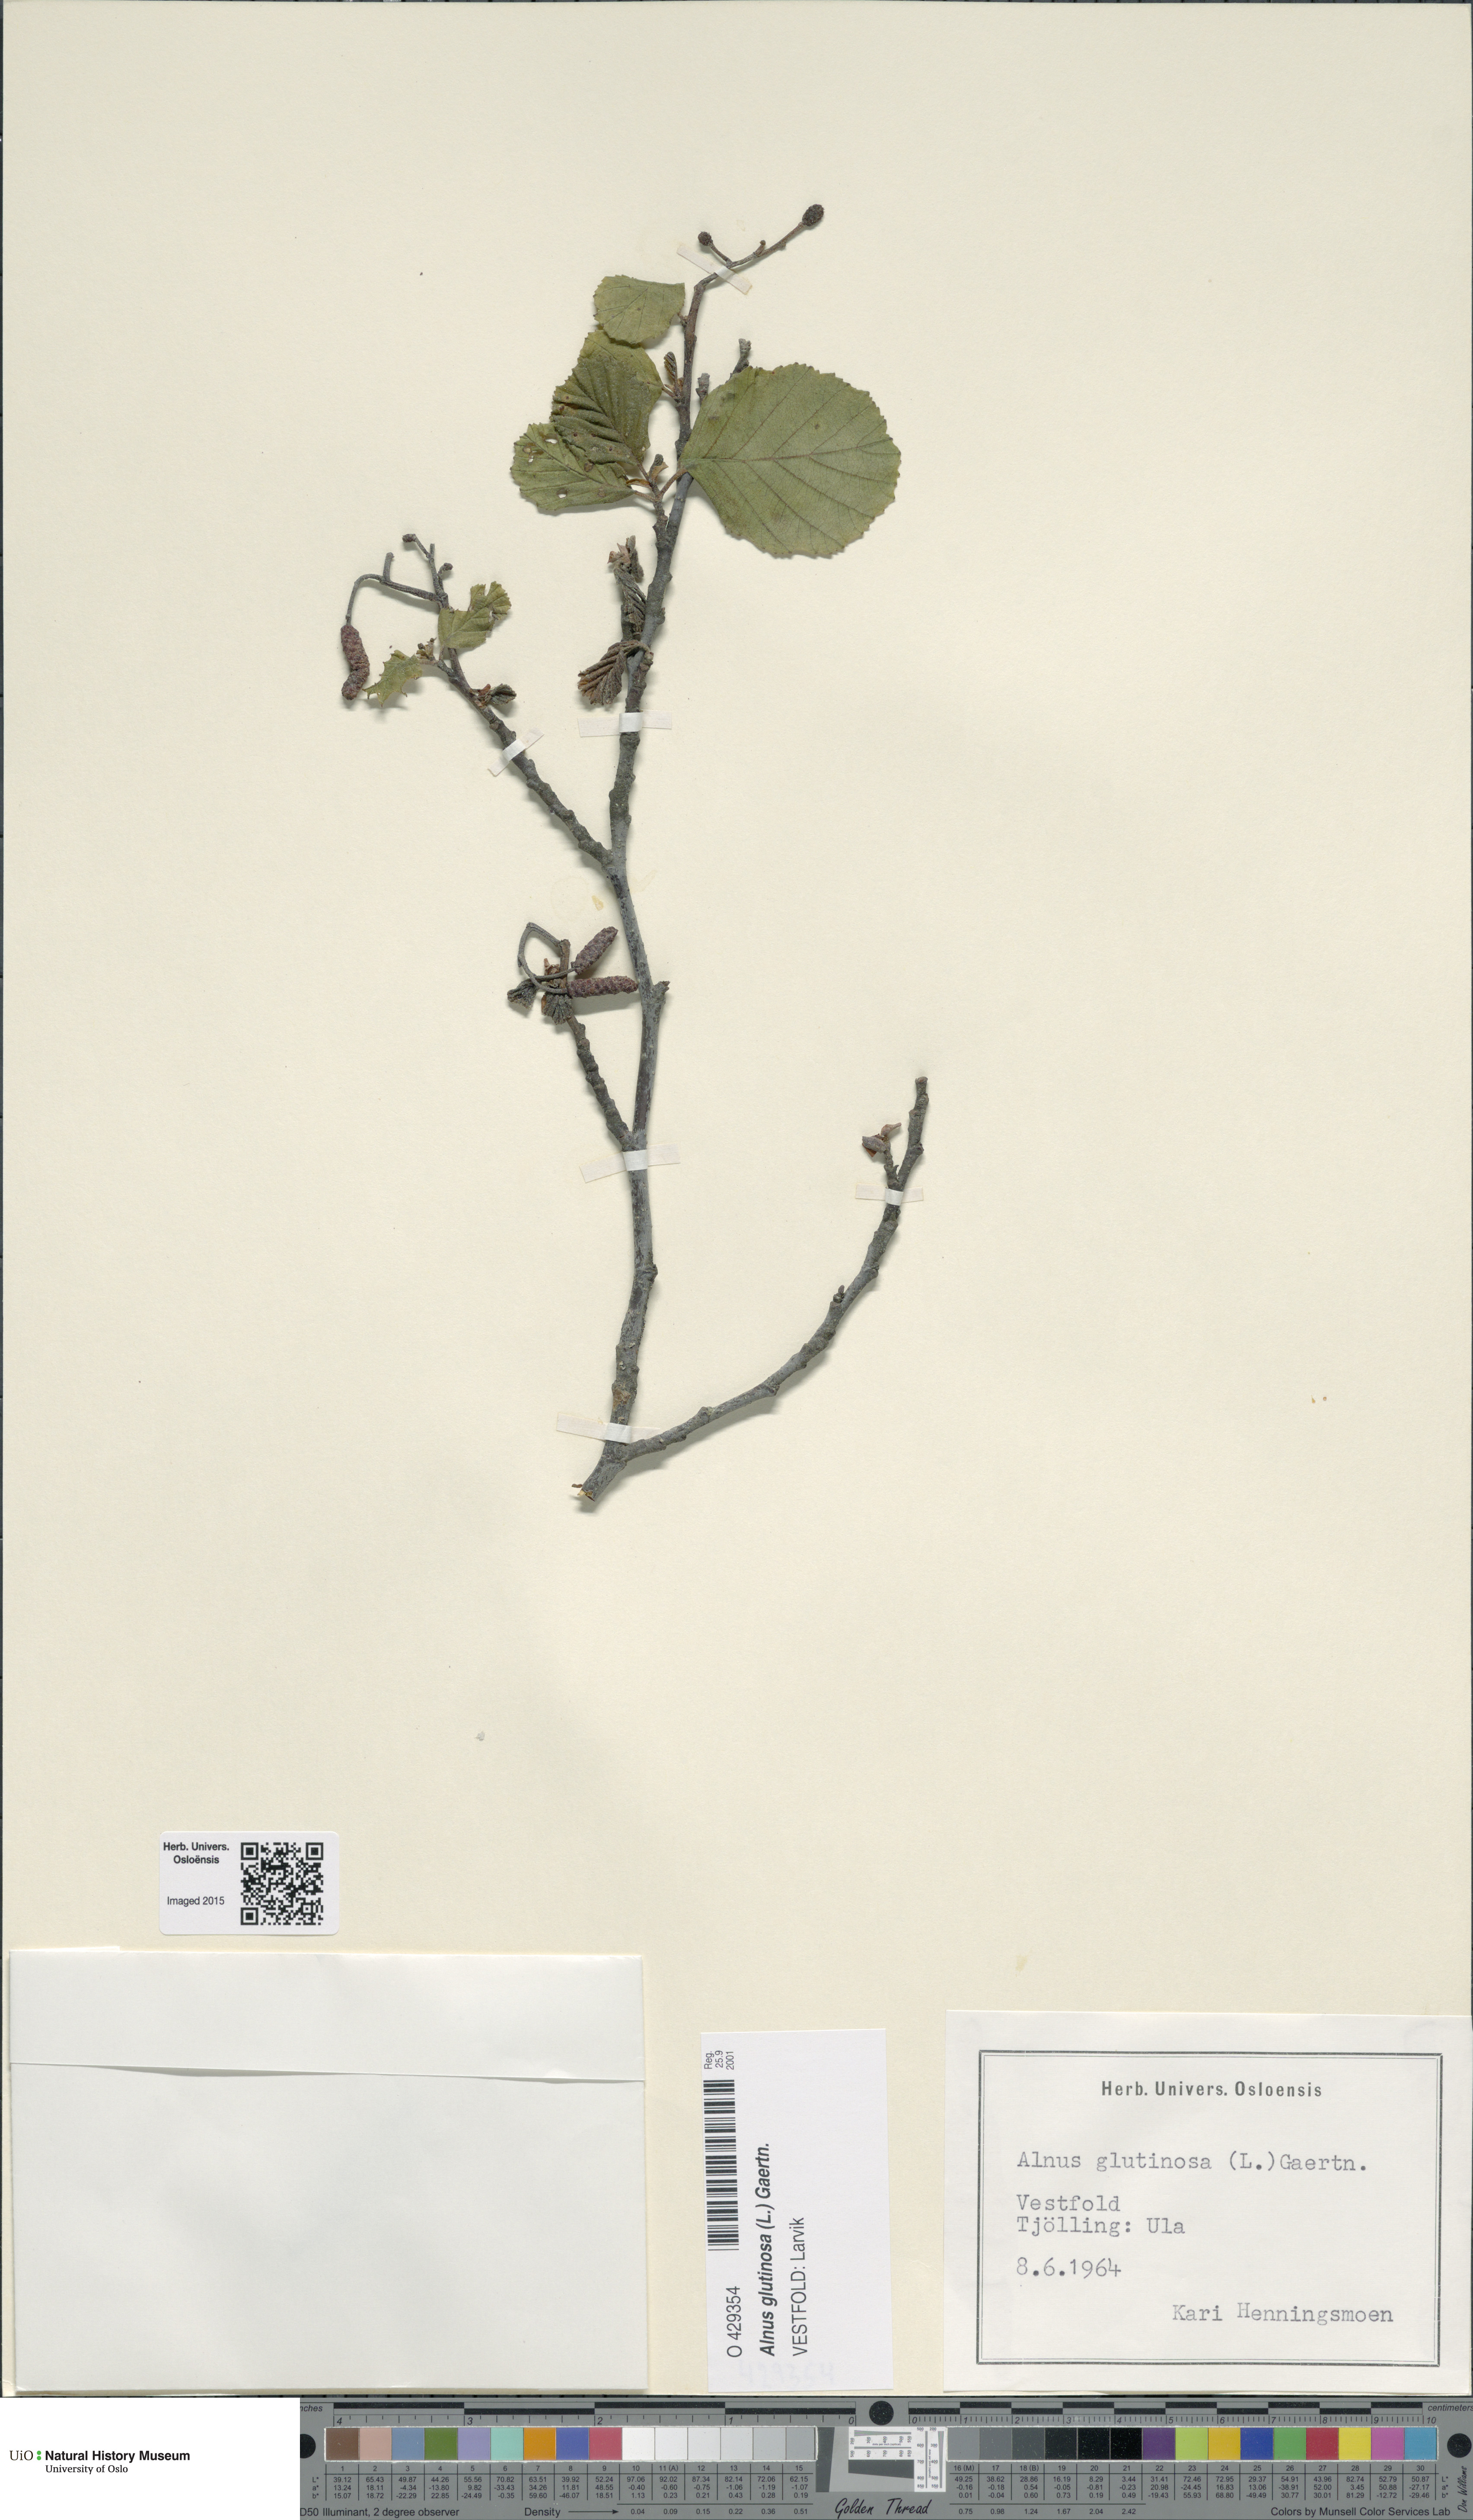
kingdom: Plantae
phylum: Tracheophyta
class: Magnoliopsida
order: Fagales
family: Betulaceae
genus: Alnus
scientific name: Alnus glutinosa
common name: Black alder
